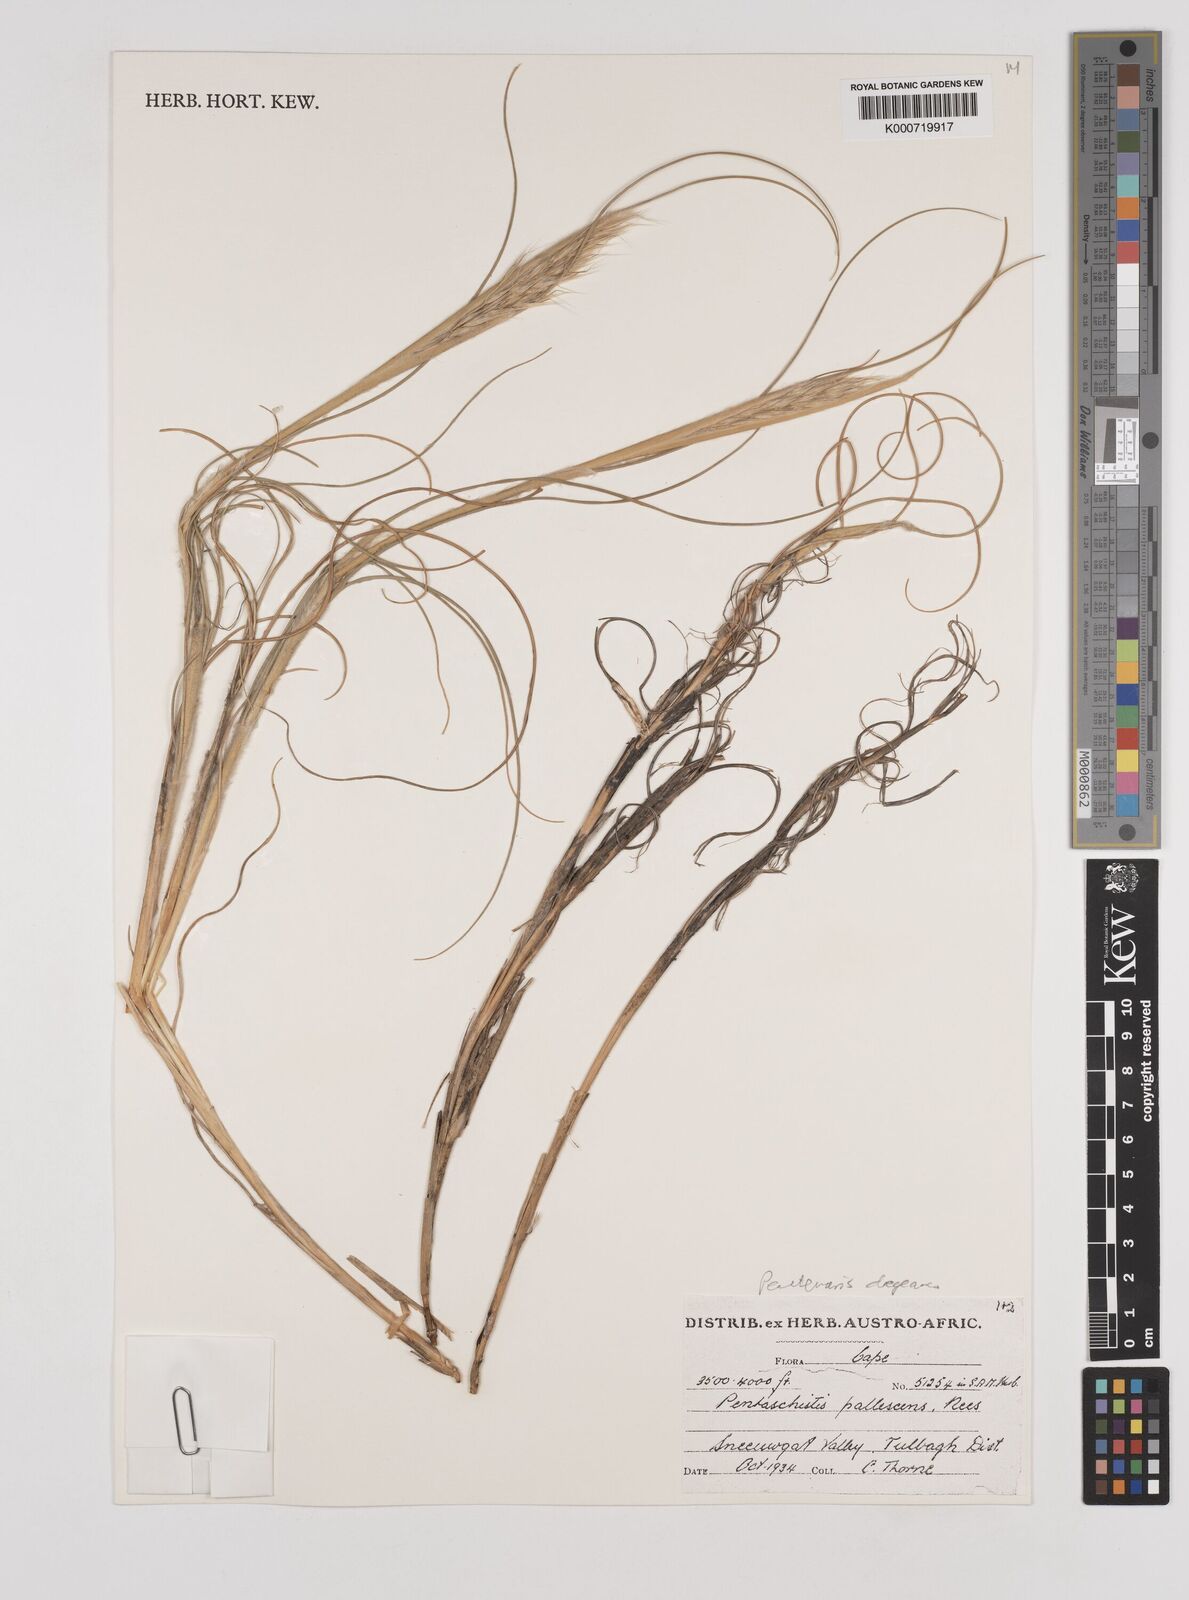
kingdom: Plantae
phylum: Tracheophyta
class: Liliopsida
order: Poales
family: Poaceae
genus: Pentameris
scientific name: Pentameris dregeana
